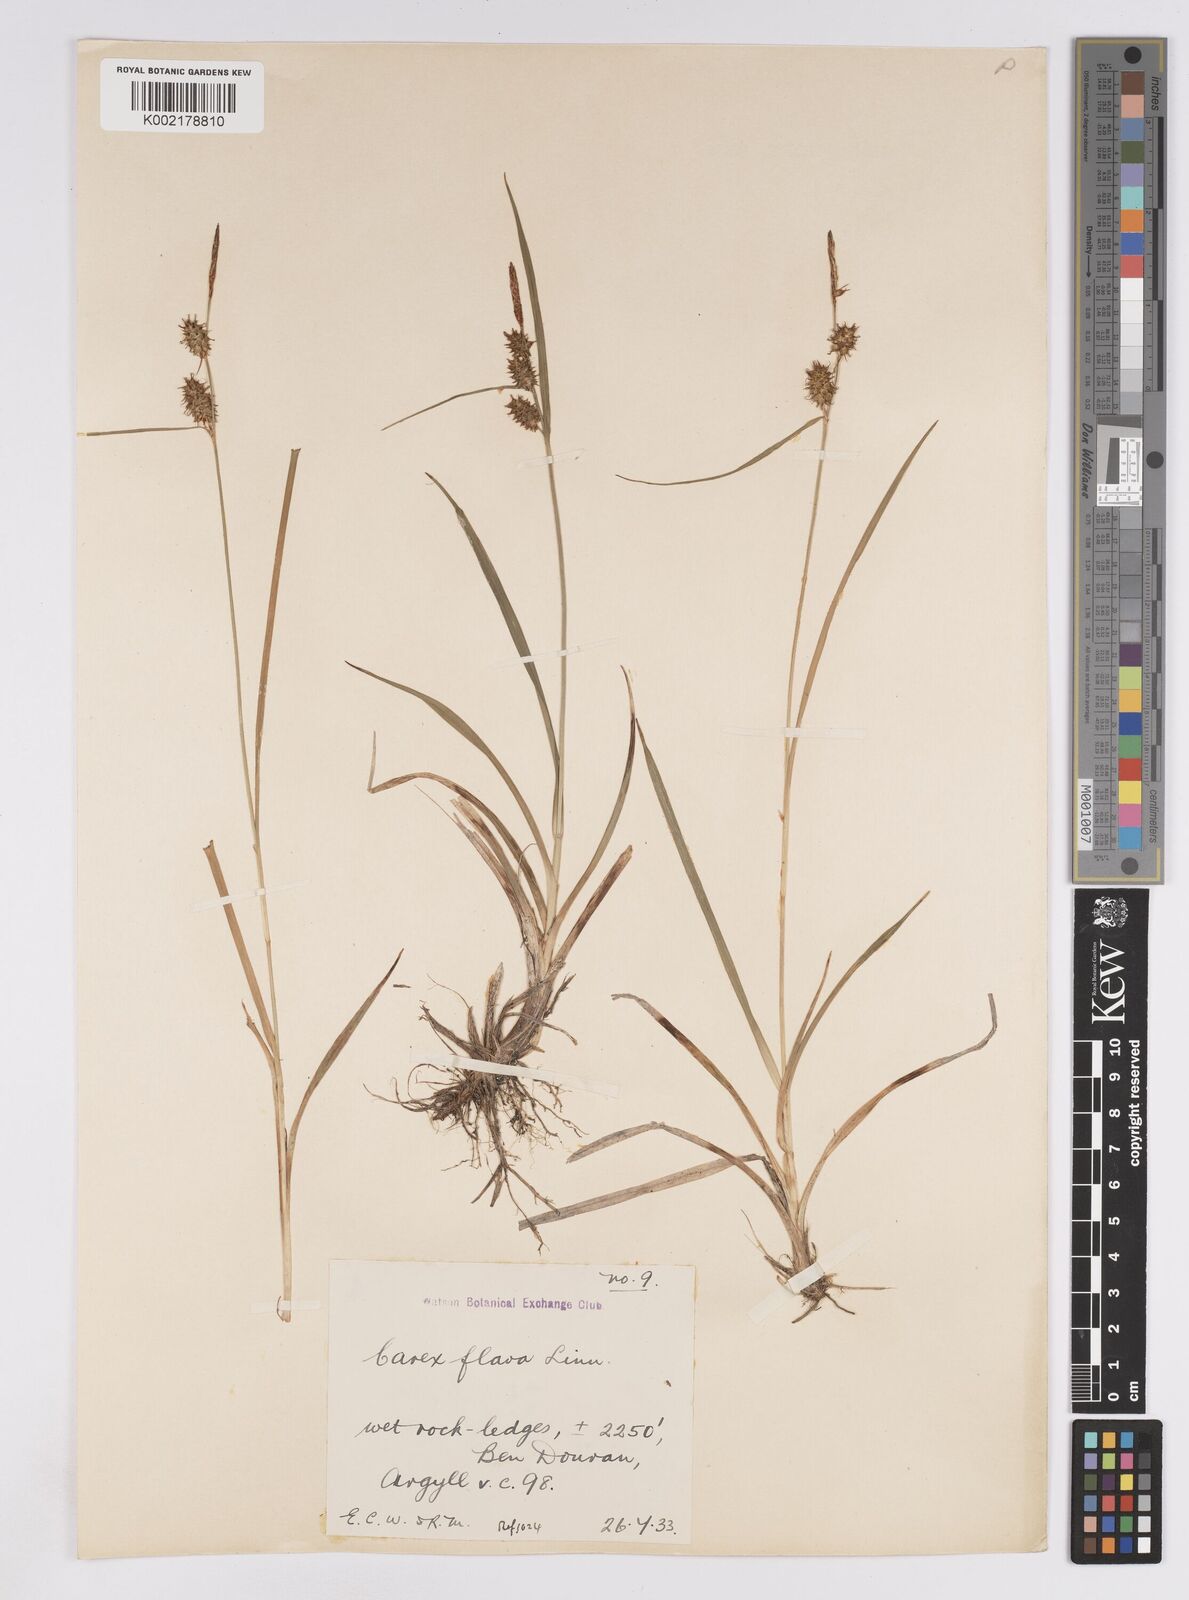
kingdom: Plantae
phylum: Tracheophyta
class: Liliopsida
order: Poales
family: Cyperaceae
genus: Carex
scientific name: Carex lepidocarpa
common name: Long-stalked yellow-sedge
